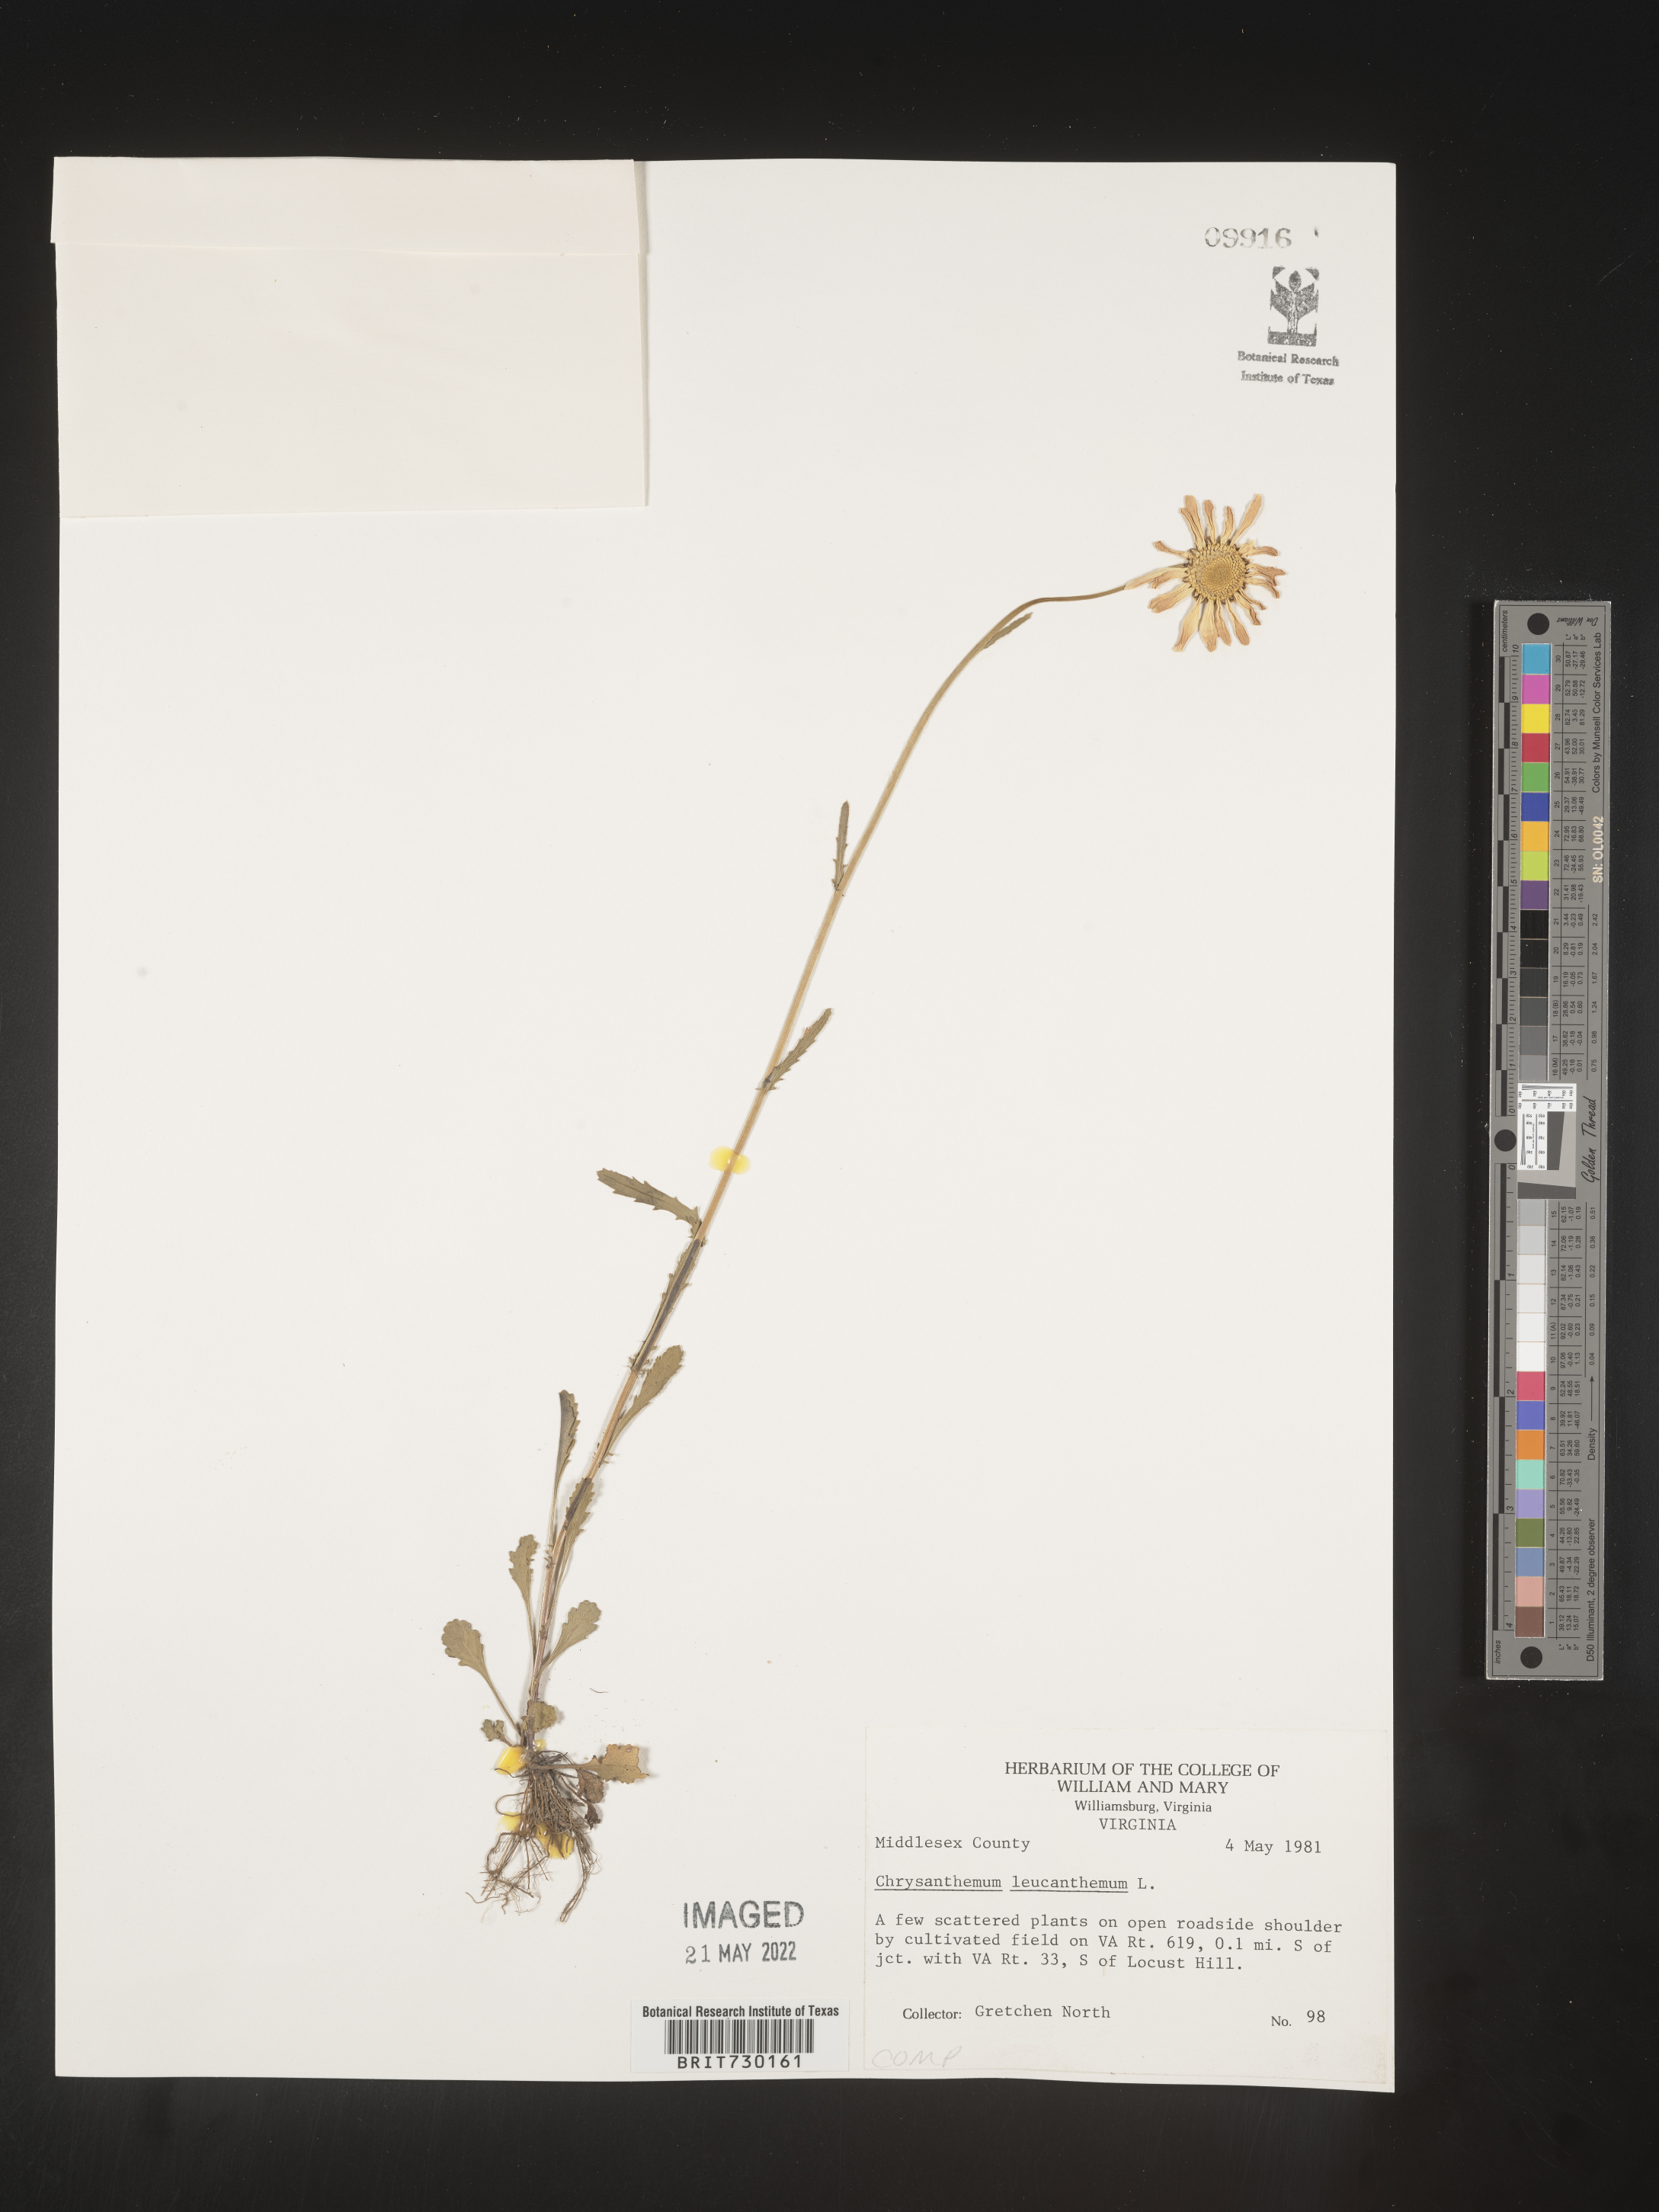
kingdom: Plantae
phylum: Tracheophyta
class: Magnoliopsida
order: Asterales
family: Asteraceae
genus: Leucanthemum
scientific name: Leucanthemum vulgare
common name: Oxeye daisy
